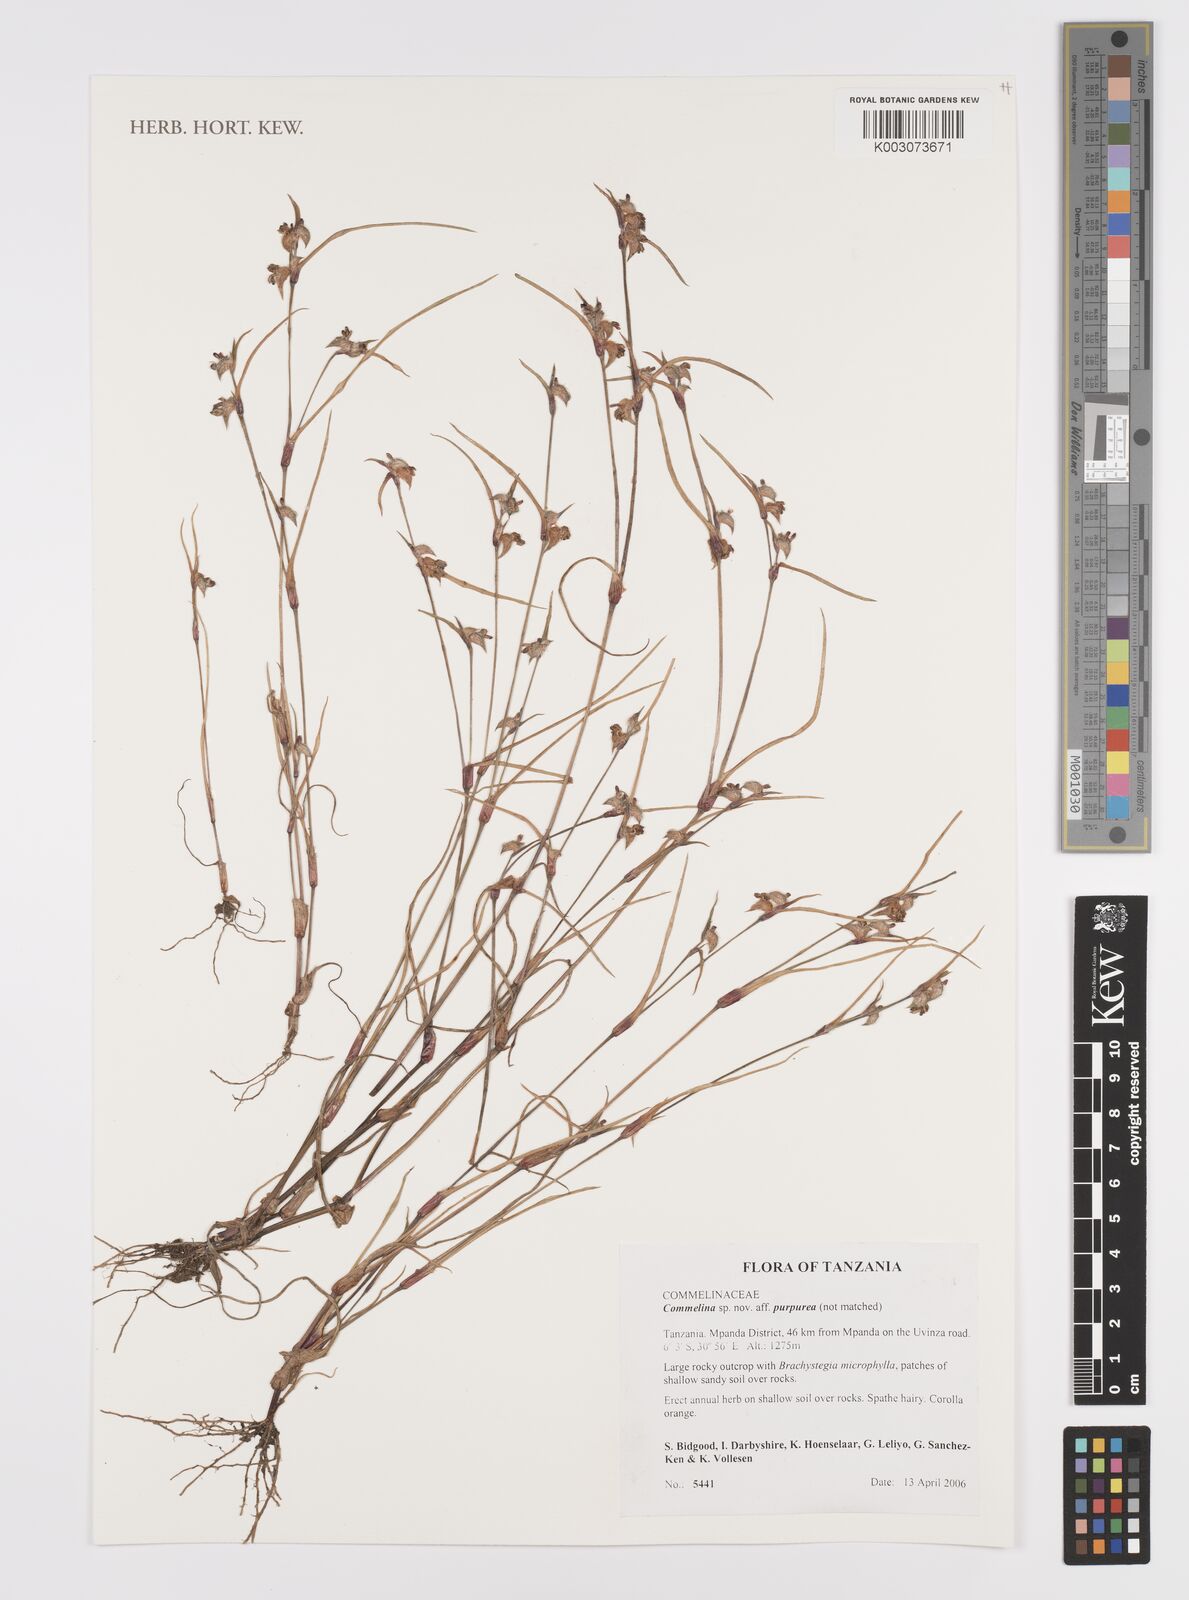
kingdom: Plantae
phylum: Tracheophyta
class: Liliopsida
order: Commelinales
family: Commelinaceae
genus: Commelina
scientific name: Commelina purpurea
